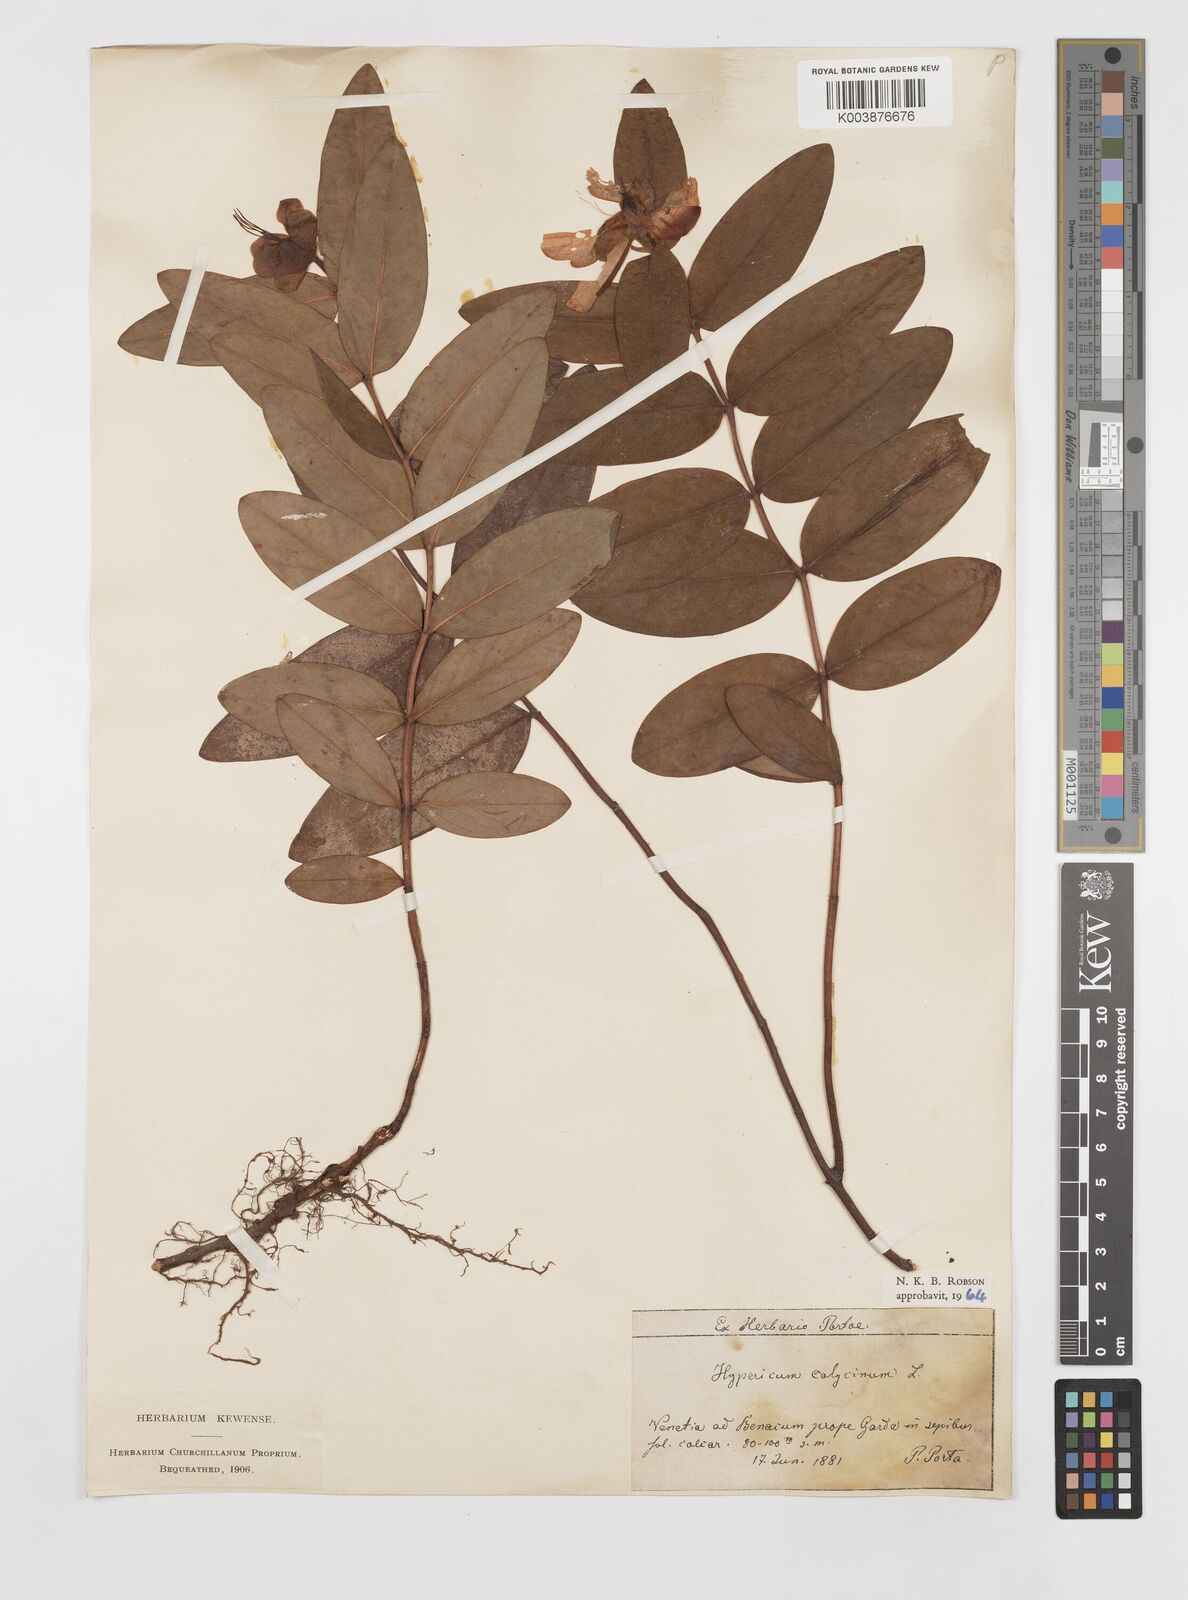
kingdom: Plantae
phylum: Tracheophyta
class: Magnoliopsida
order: Malpighiales
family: Hypericaceae
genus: Hypericum
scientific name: Hypericum calycinum
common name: Rose-of-sharon
